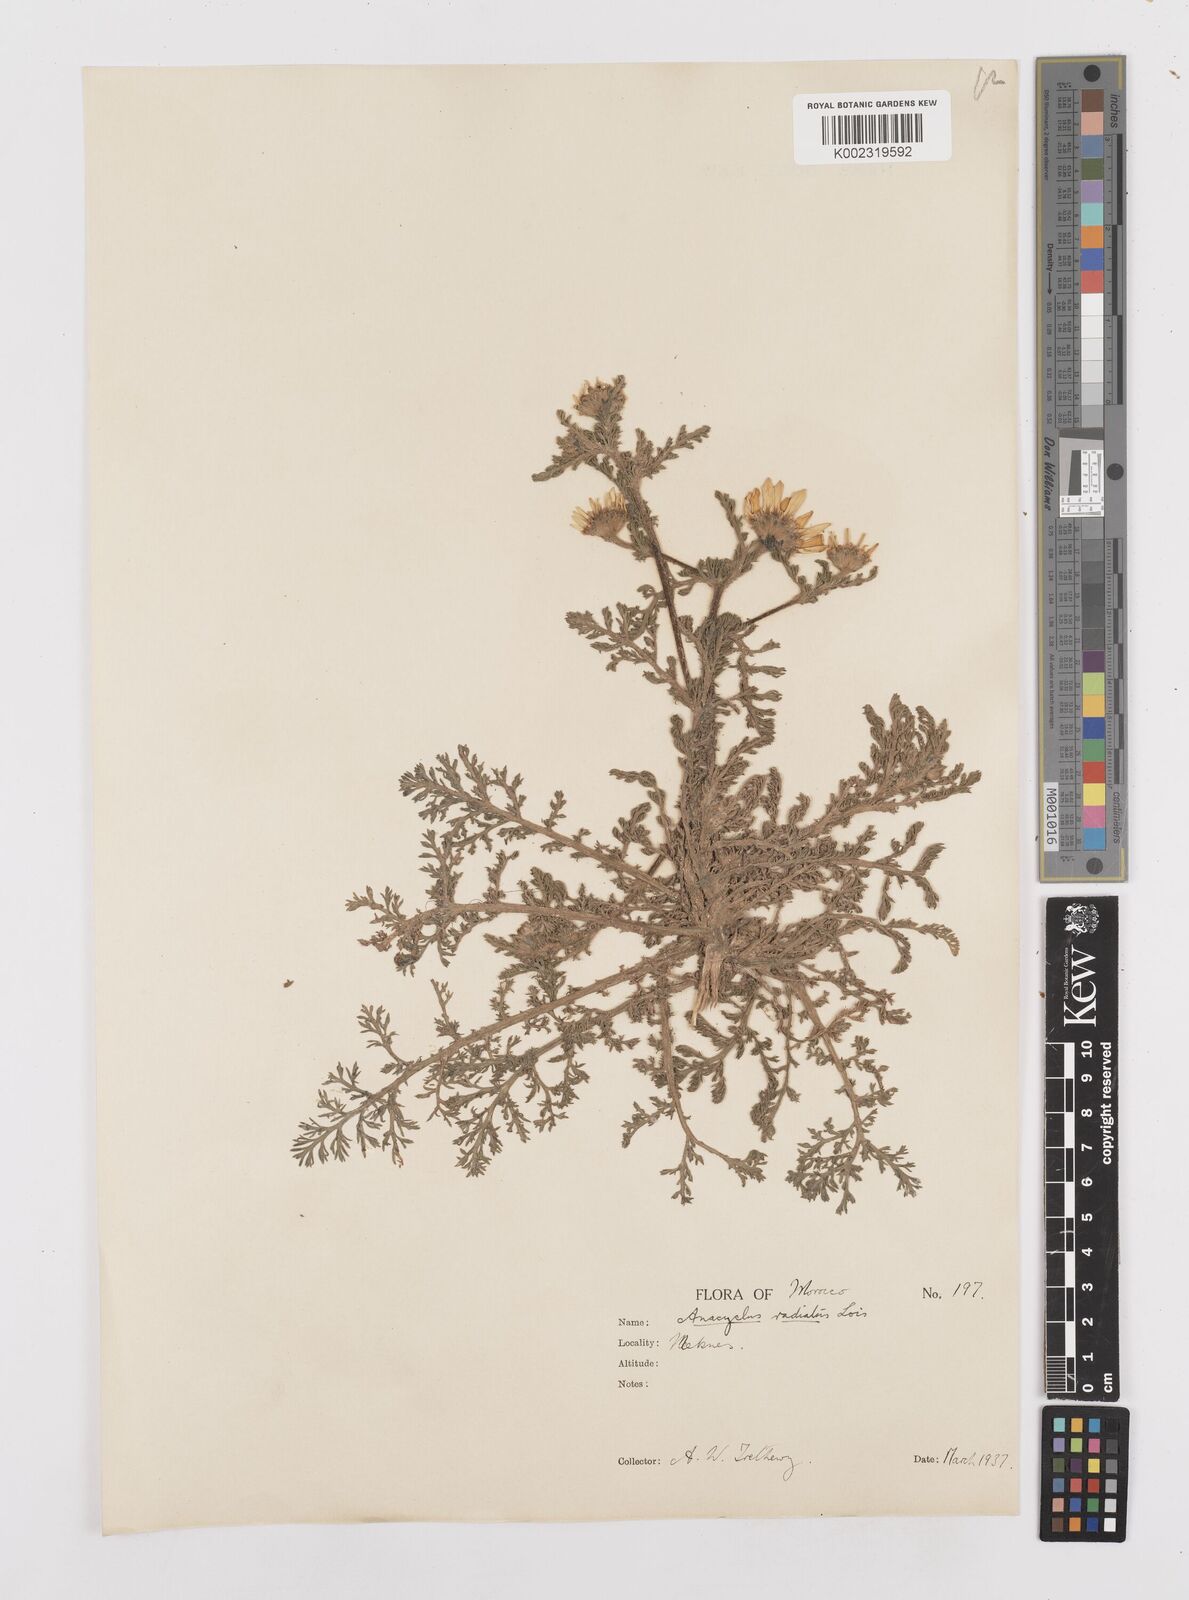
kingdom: Plantae
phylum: Tracheophyta
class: Magnoliopsida
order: Asterales
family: Asteraceae
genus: Anacyclus
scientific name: Anacyclus radiatus
